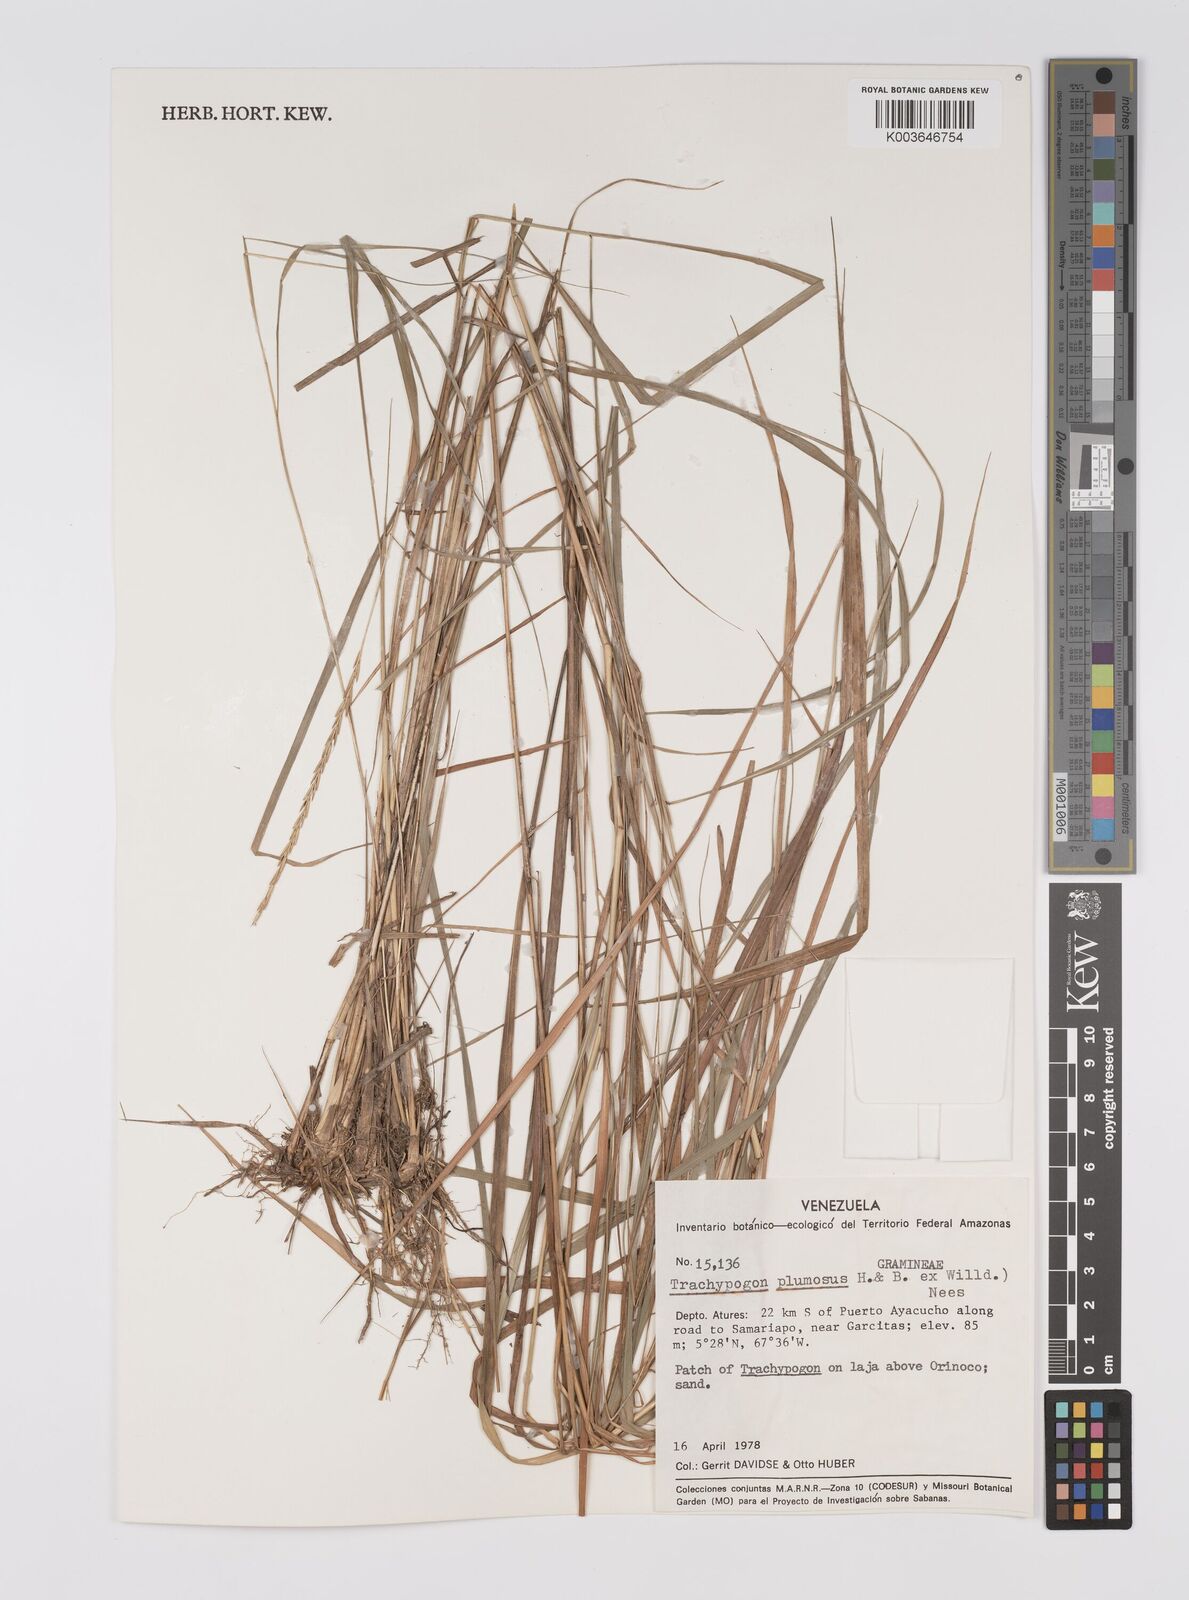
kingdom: Plantae
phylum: Tracheophyta
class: Liliopsida
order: Poales
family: Poaceae
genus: Trachypogon
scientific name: Trachypogon spicatus
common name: Crinkle-awn
